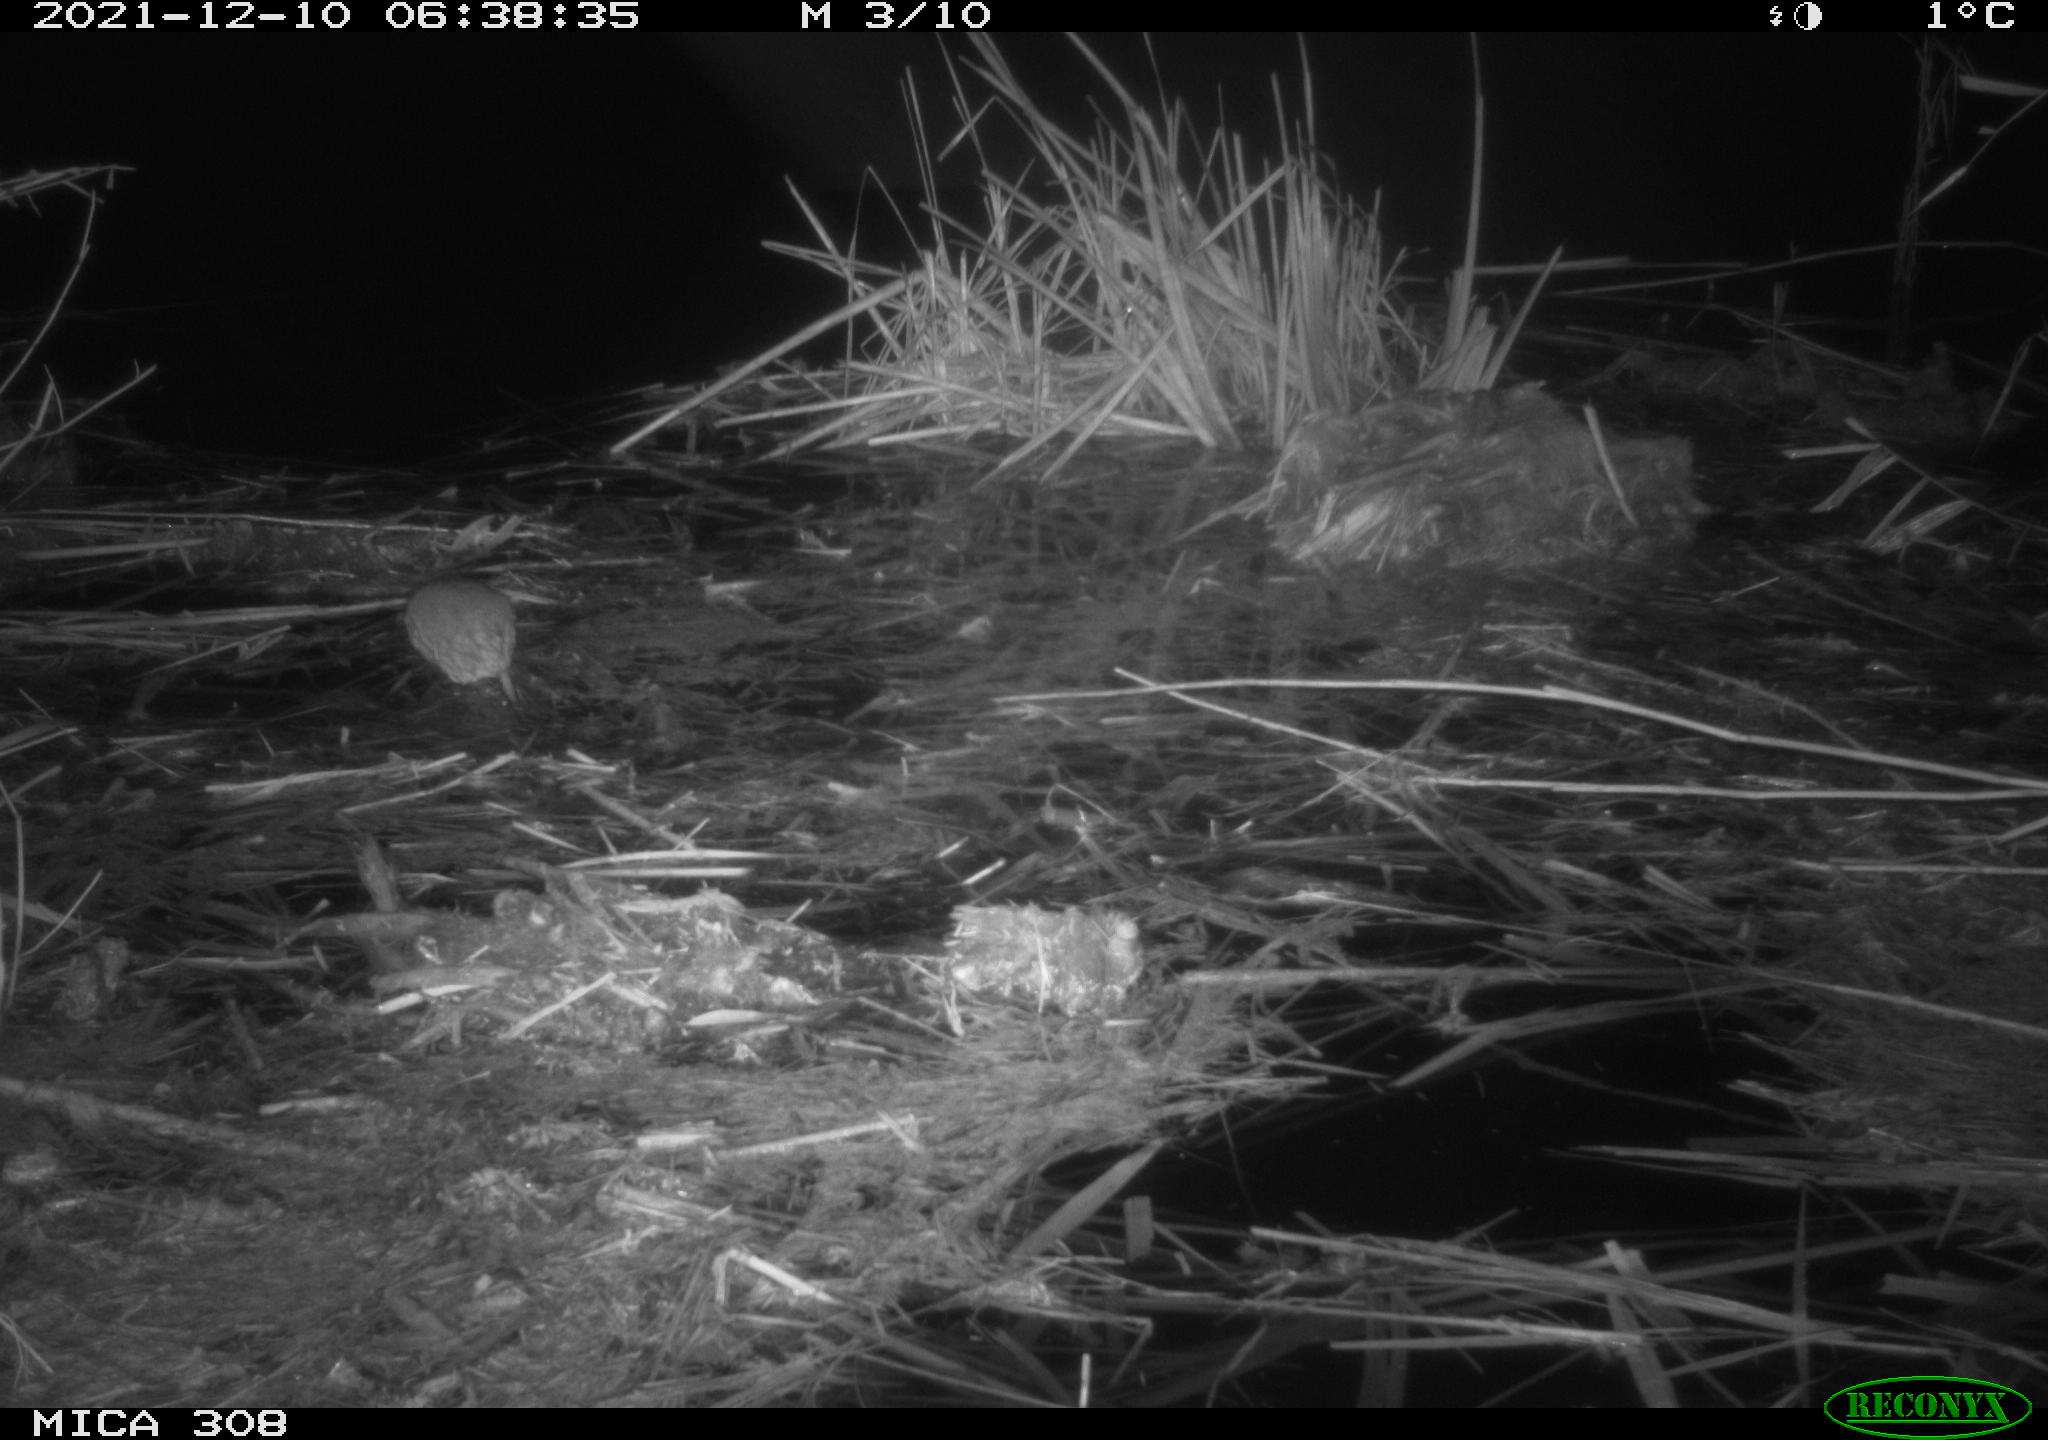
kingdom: Animalia
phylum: Chordata
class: Mammalia
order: Rodentia
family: Muridae
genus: Rattus
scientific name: Rattus norvegicus
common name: Brown rat
